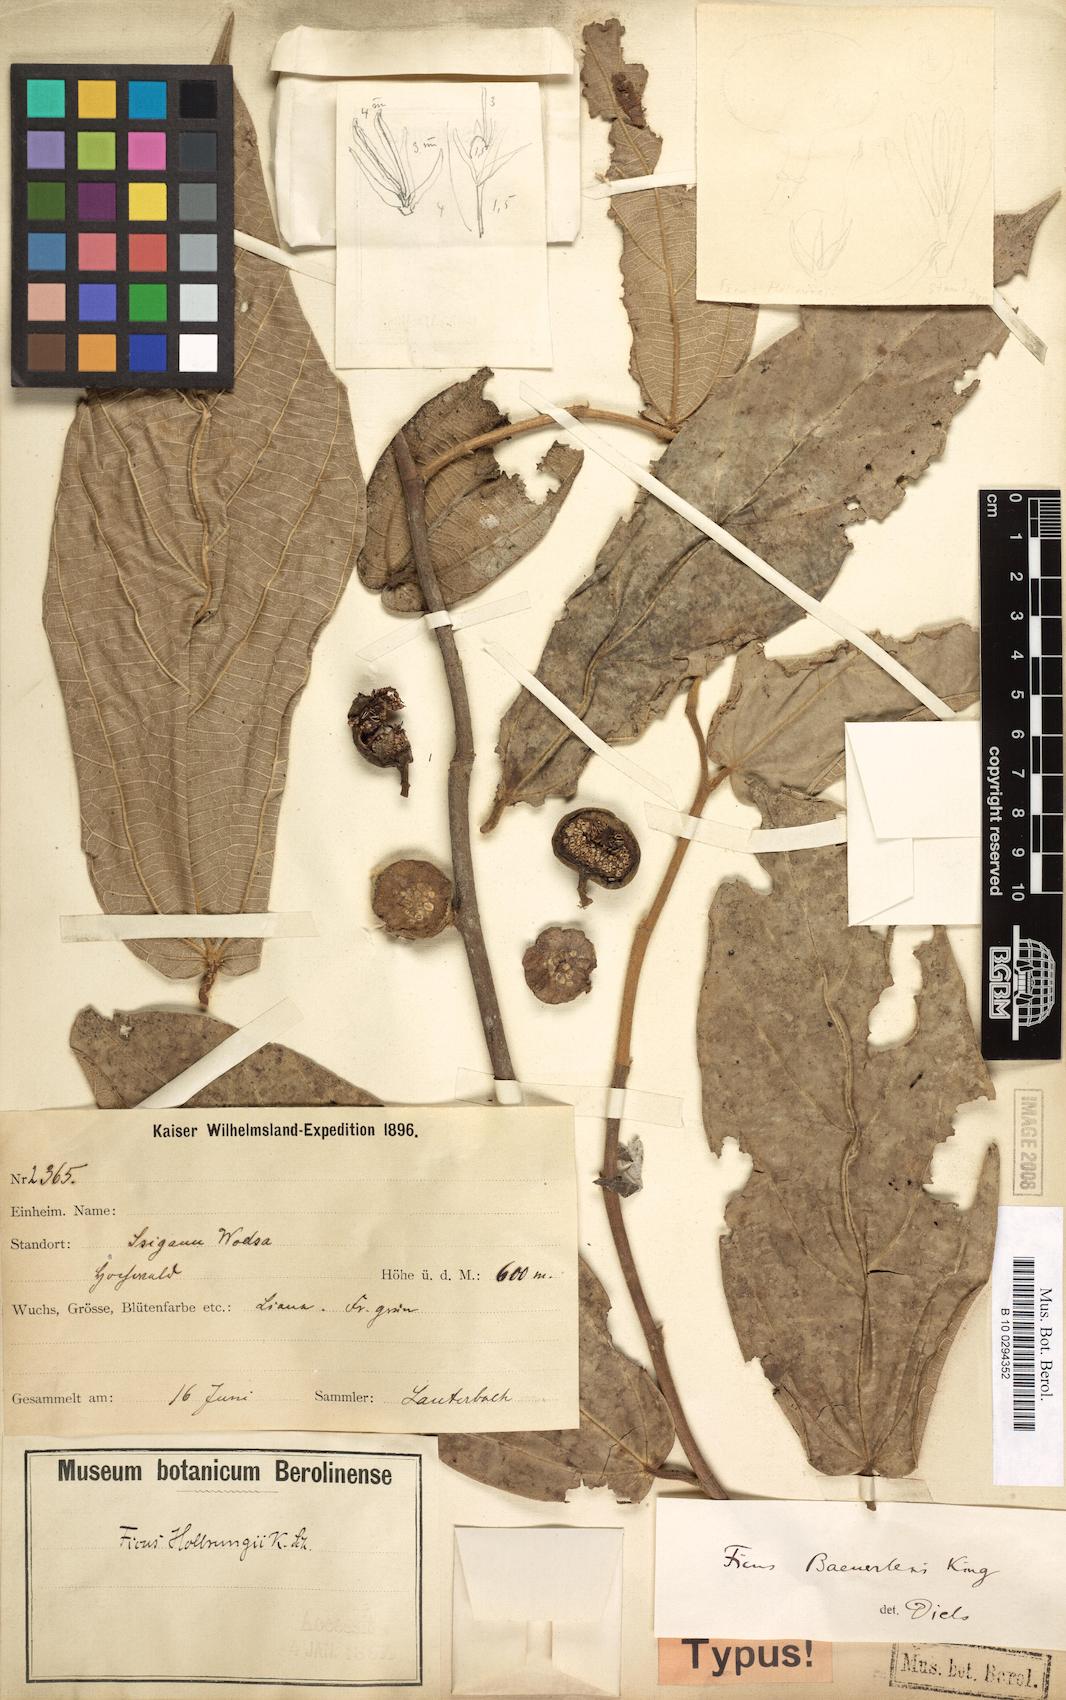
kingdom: Plantae
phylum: Tracheophyta
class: Magnoliopsida
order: Rosales
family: Moraceae
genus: Ficus
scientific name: Ficus baeuerlenii
